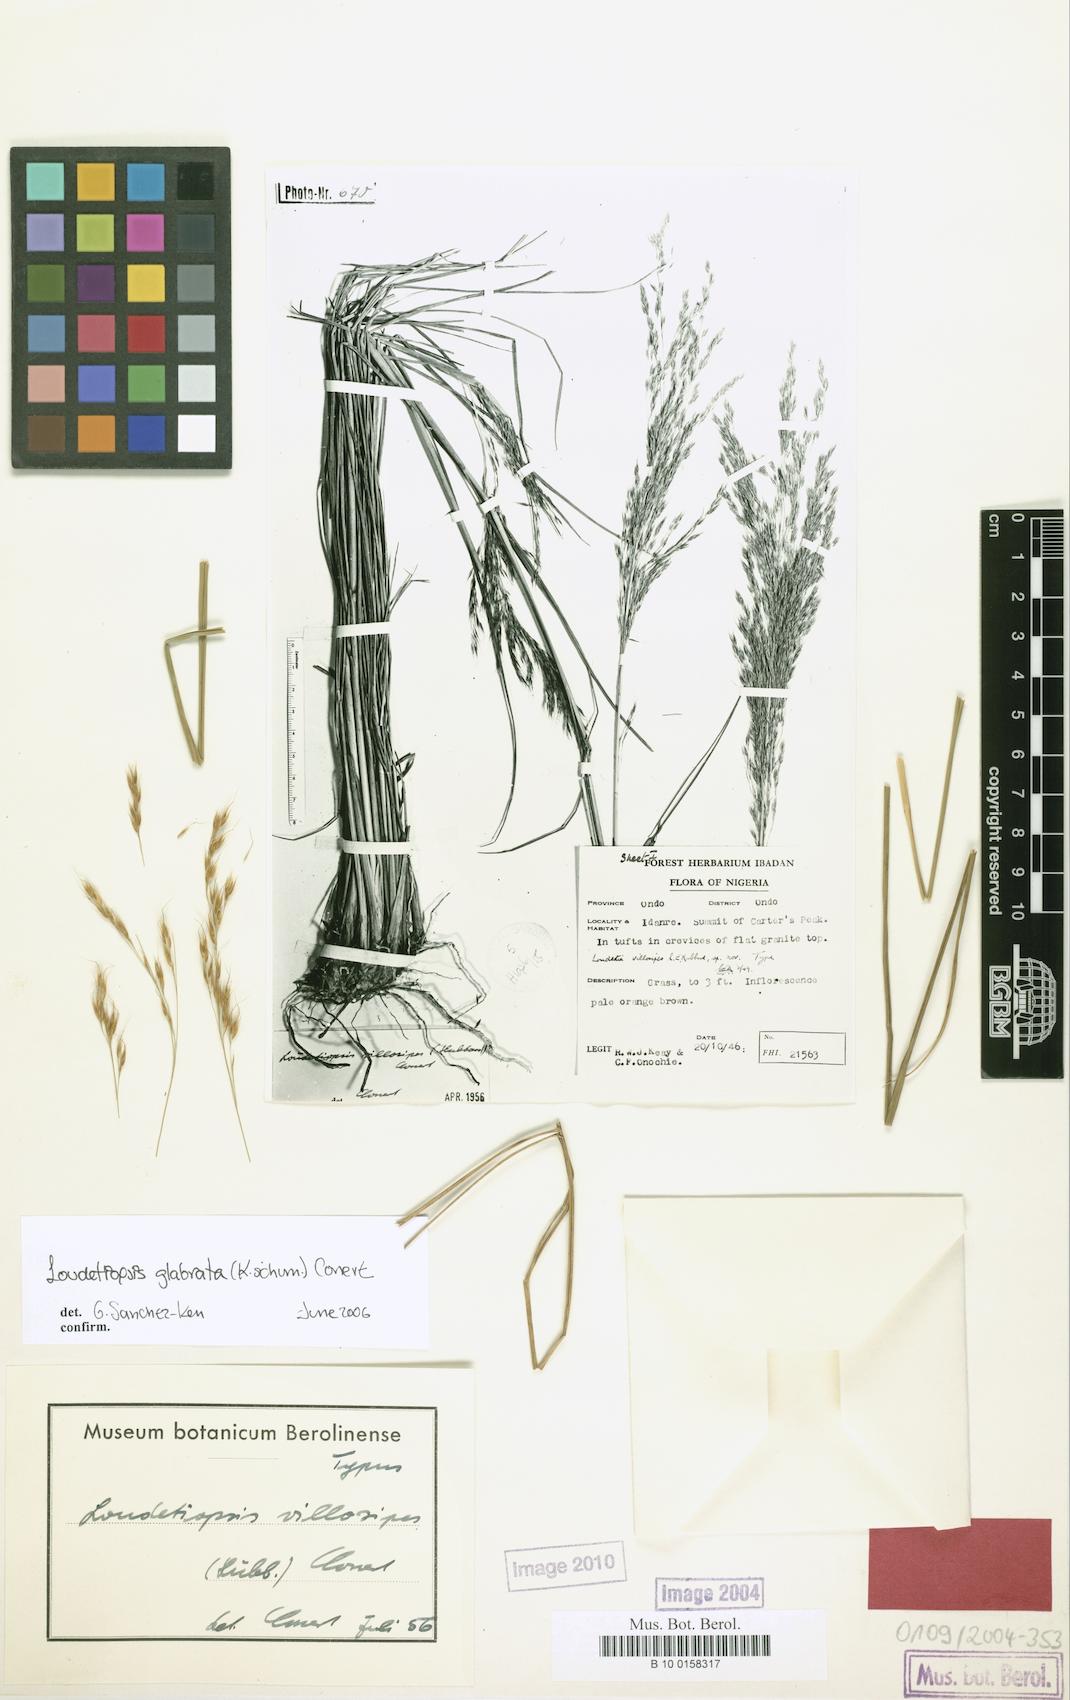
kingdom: Plantae
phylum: Tracheophyta
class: Liliopsida
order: Poales
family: Poaceae
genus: Loudetiopsis
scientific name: Loudetiopsis glabrata
